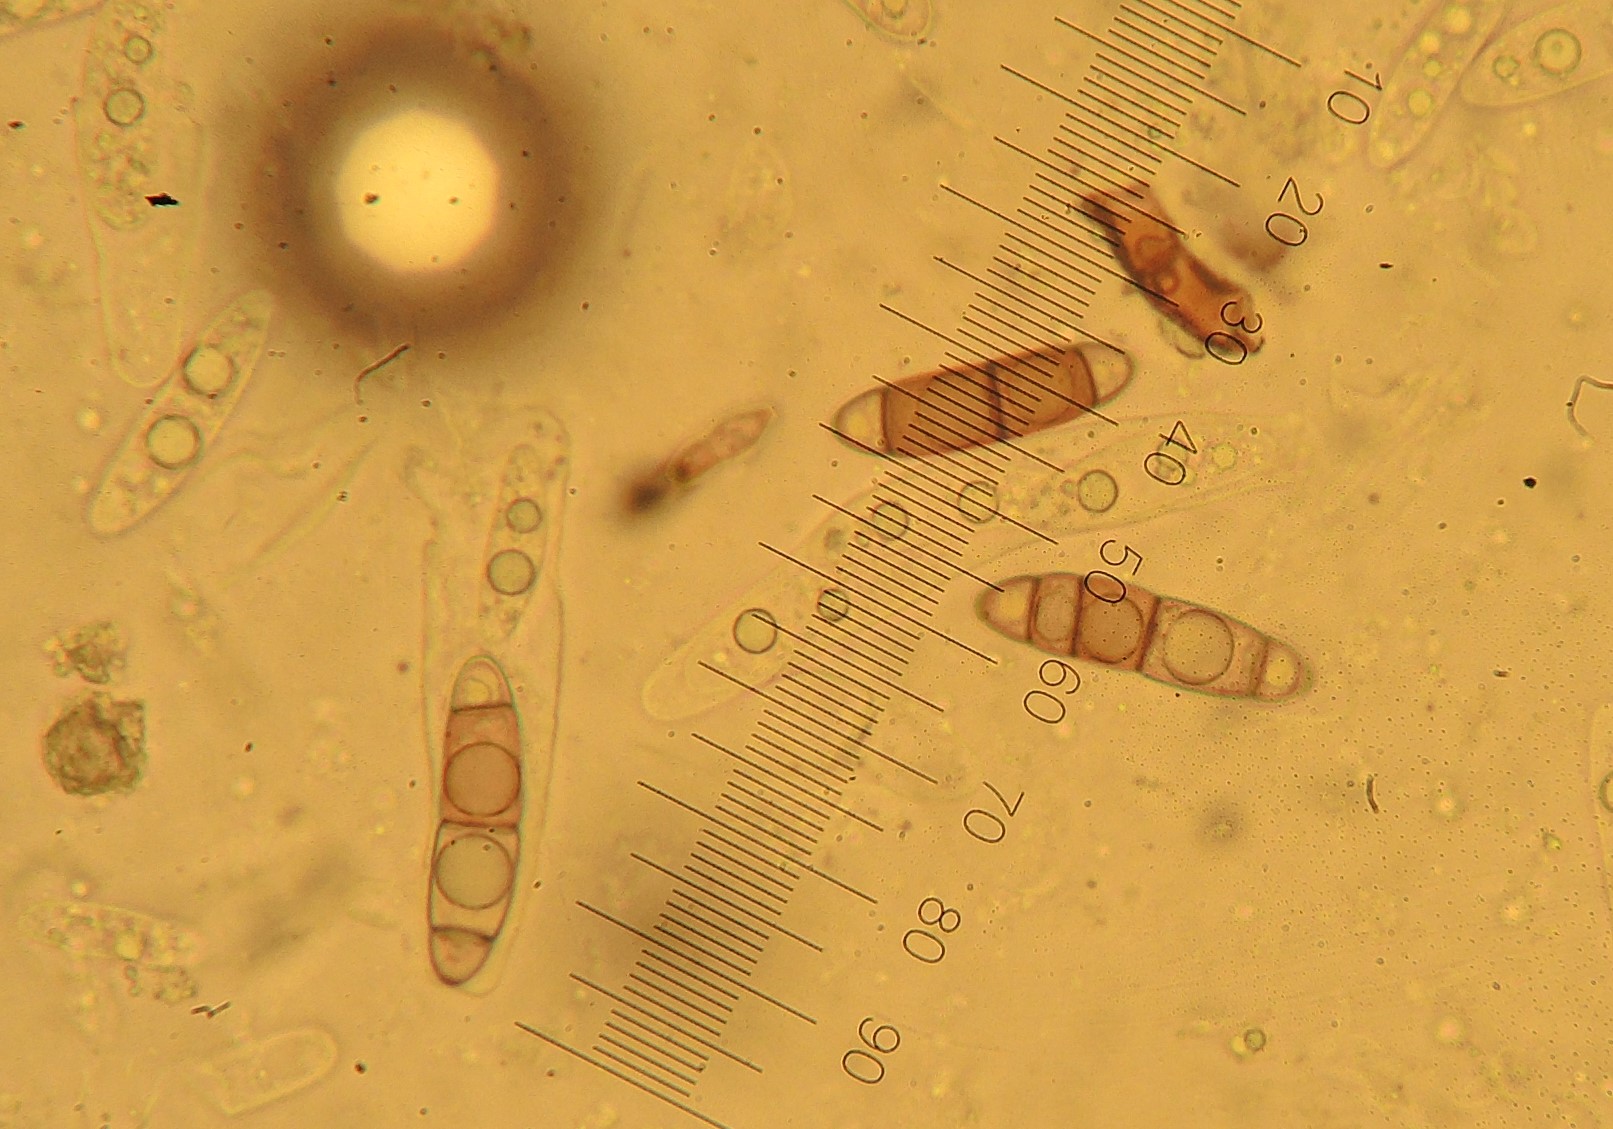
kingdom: Fungi
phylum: Ascomycota
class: Sordariomycetes
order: Coronophorales
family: Chaetosphaerellaceae
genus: Chaetosphaerella
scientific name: Chaetosphaerella phaeostroma
